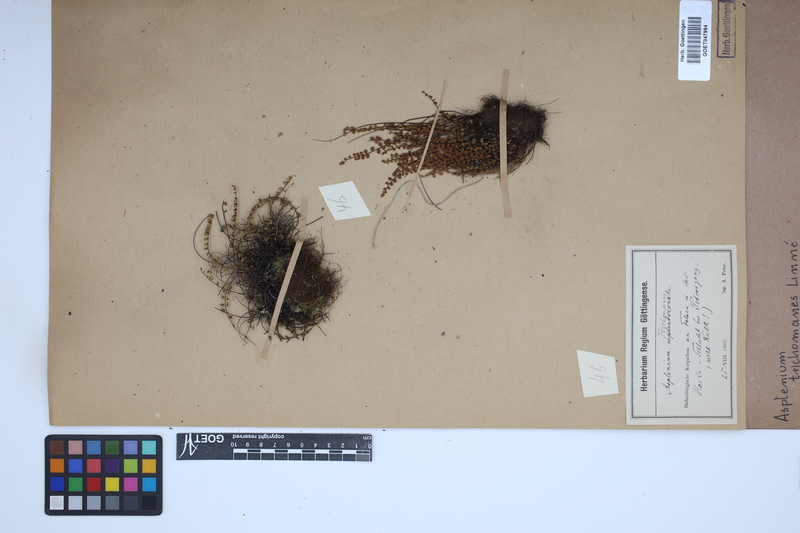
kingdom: Plantae
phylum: Tracheophyta
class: Polypodiopsida
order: Polypodiales
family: Aspleniaceae
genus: Asplenium
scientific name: Asplenium trichomanes
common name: Maidenhair spleenwort
